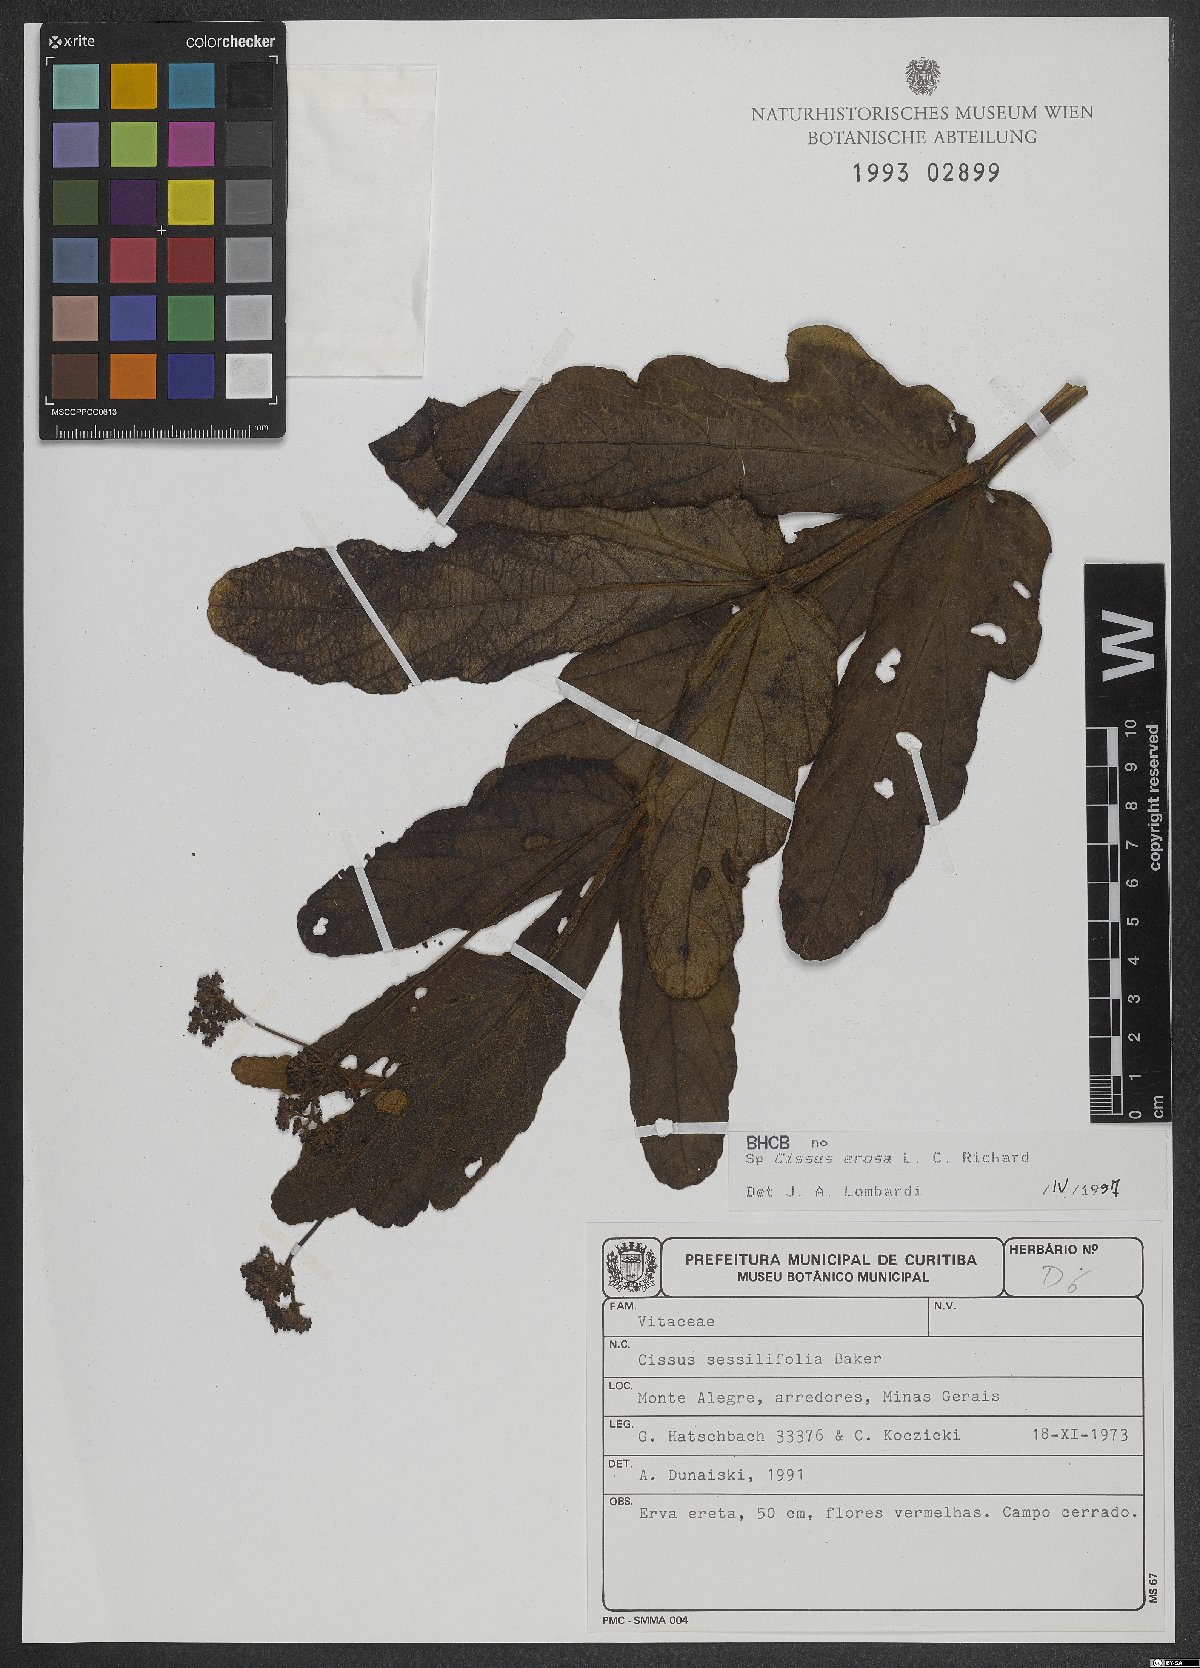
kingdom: Plantae
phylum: Tracheophyta
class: Magnoliopsida
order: Vitales
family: Vitaceae
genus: Cissus
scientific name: Cissus erosa
